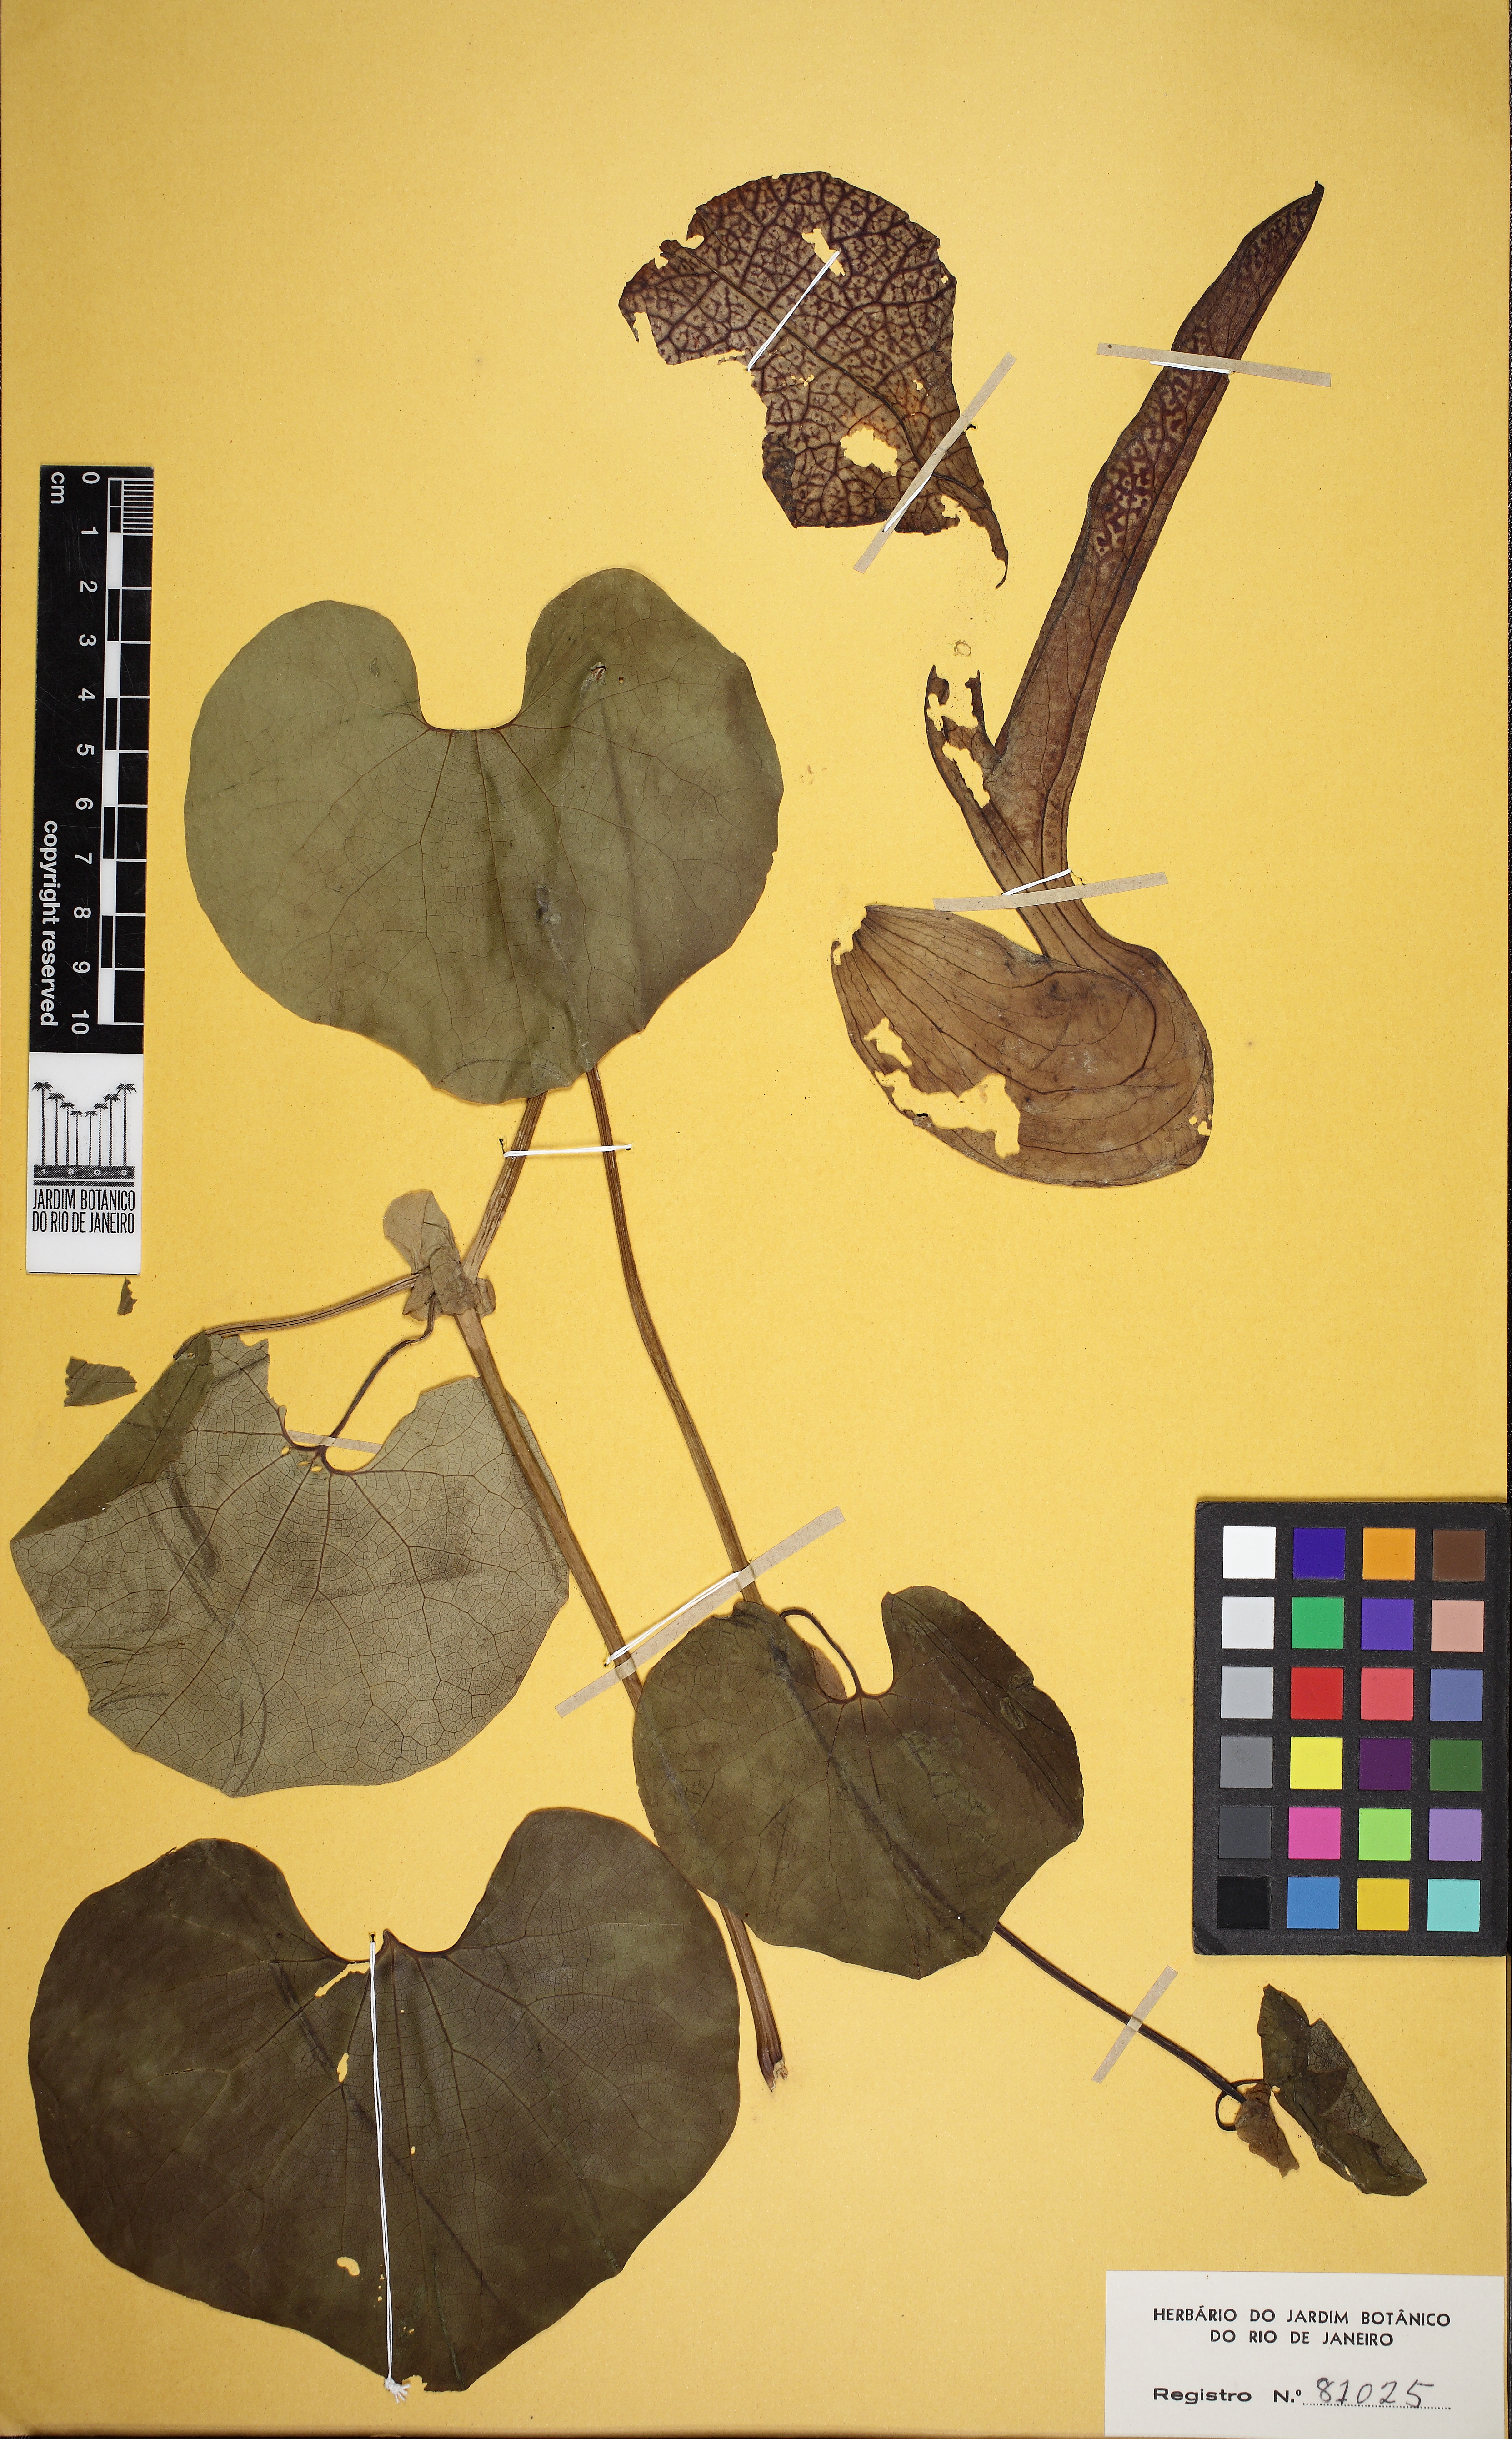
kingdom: Plantae
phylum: Tracheophyta
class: Magnoliopsida
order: Piperales
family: Aristolochiaceae
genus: Aristolochia
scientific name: Aristolochia labiata
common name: Mottled dutchman's pipe
